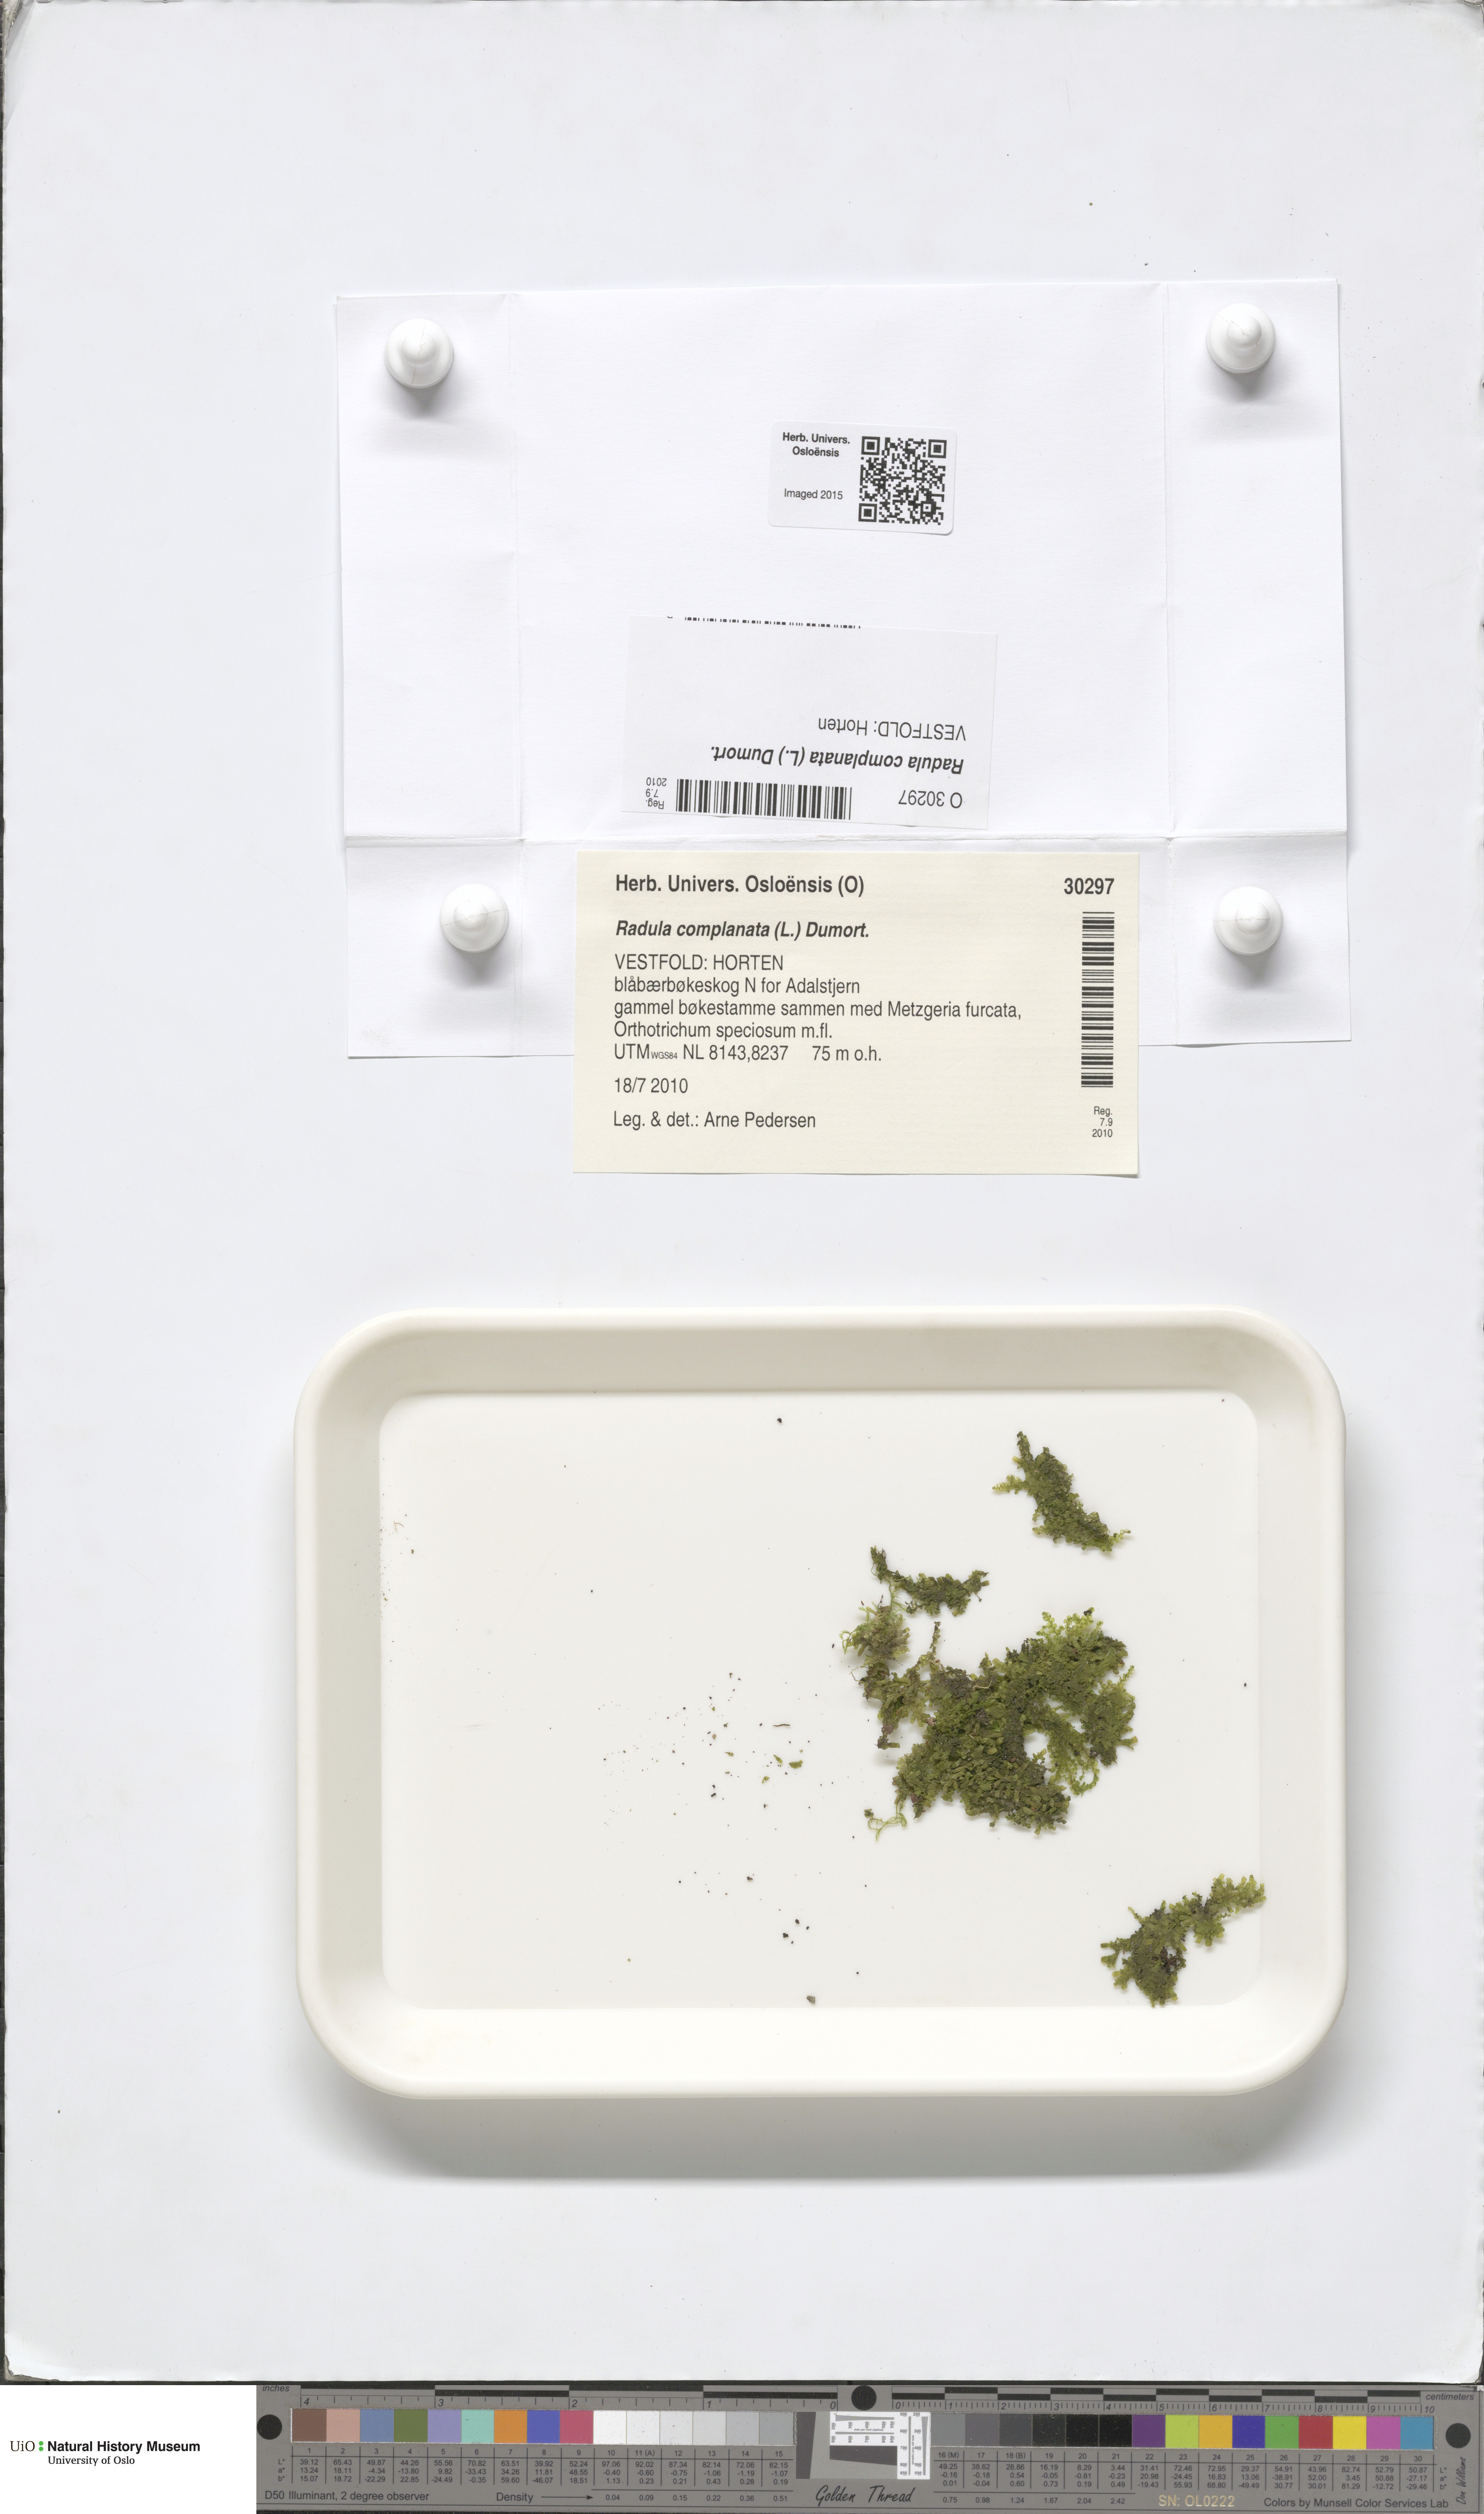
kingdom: Plantae
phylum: Marchantiophyta
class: Jungermanniopsida
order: Porellales
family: Radulaceae
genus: Radula
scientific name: Radula complanata
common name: Flat-leaved scalewort
